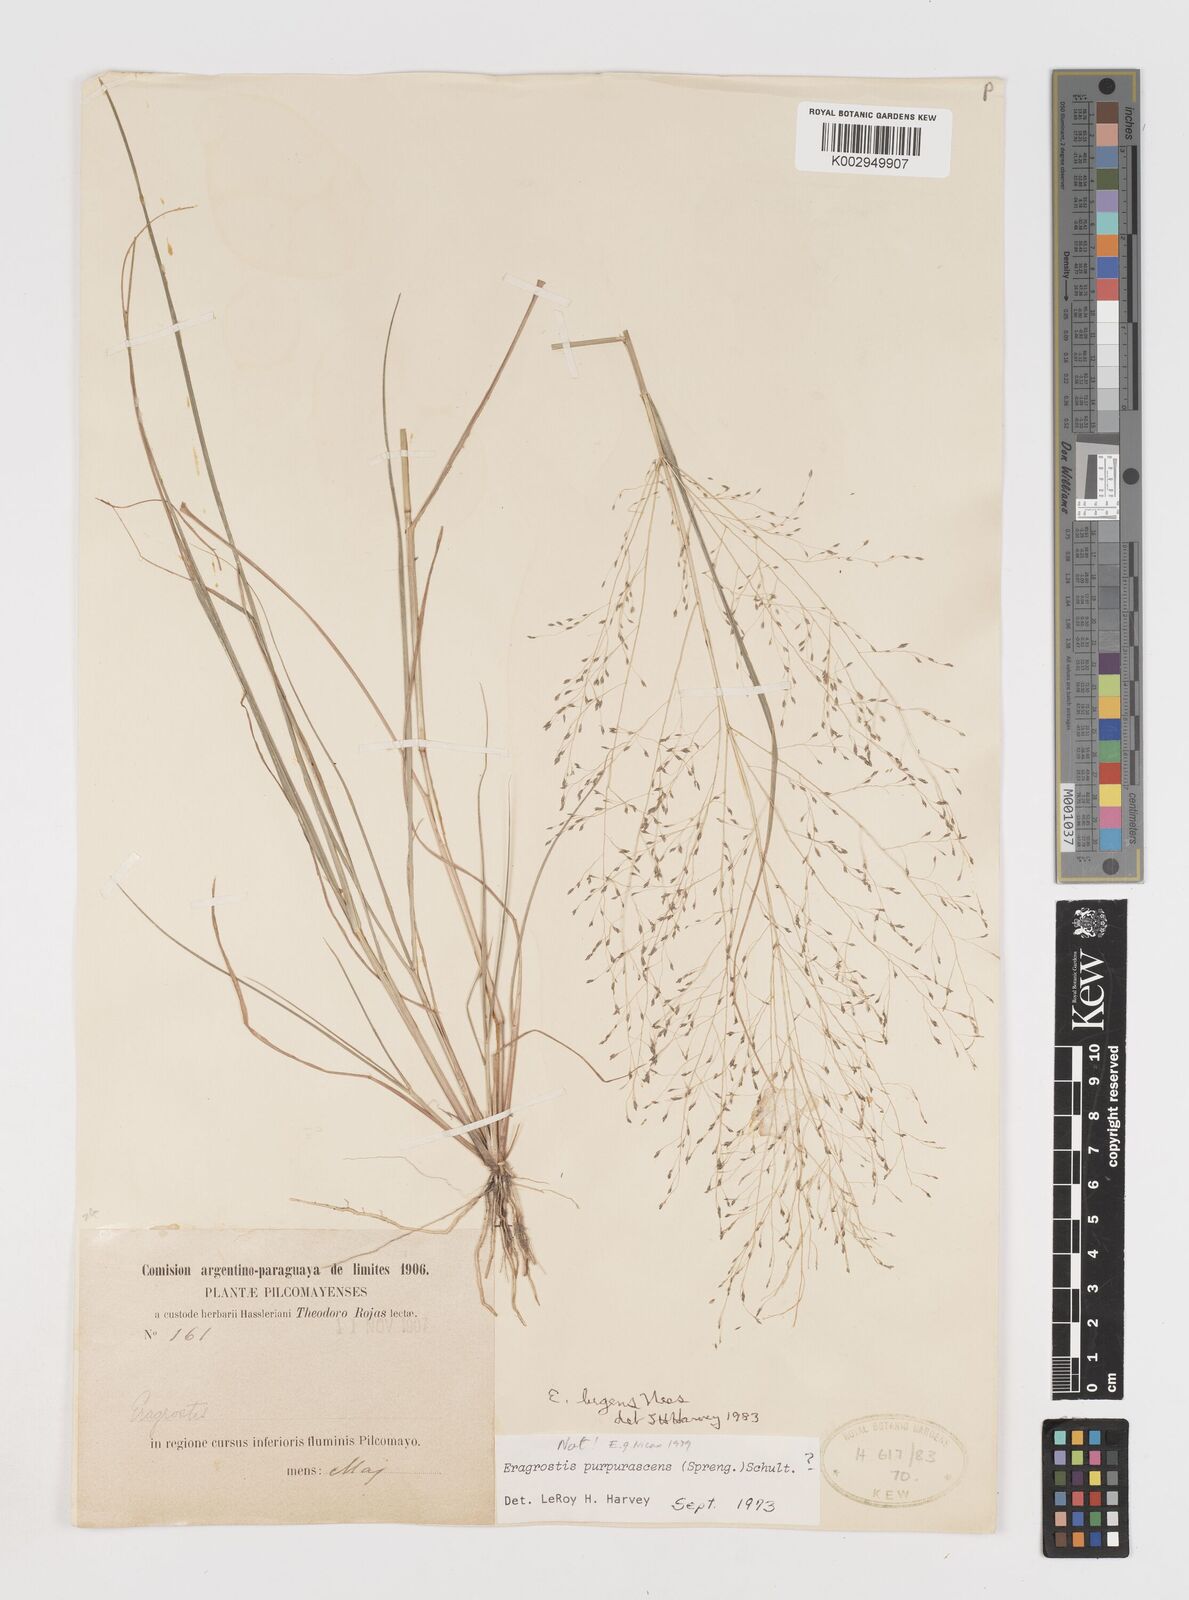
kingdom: Plantae
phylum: Tracheophyta
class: Liliopsida
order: Poales
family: Poaceae
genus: Eragrostis
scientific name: Eragrostis lugens
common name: Mourning love grass
